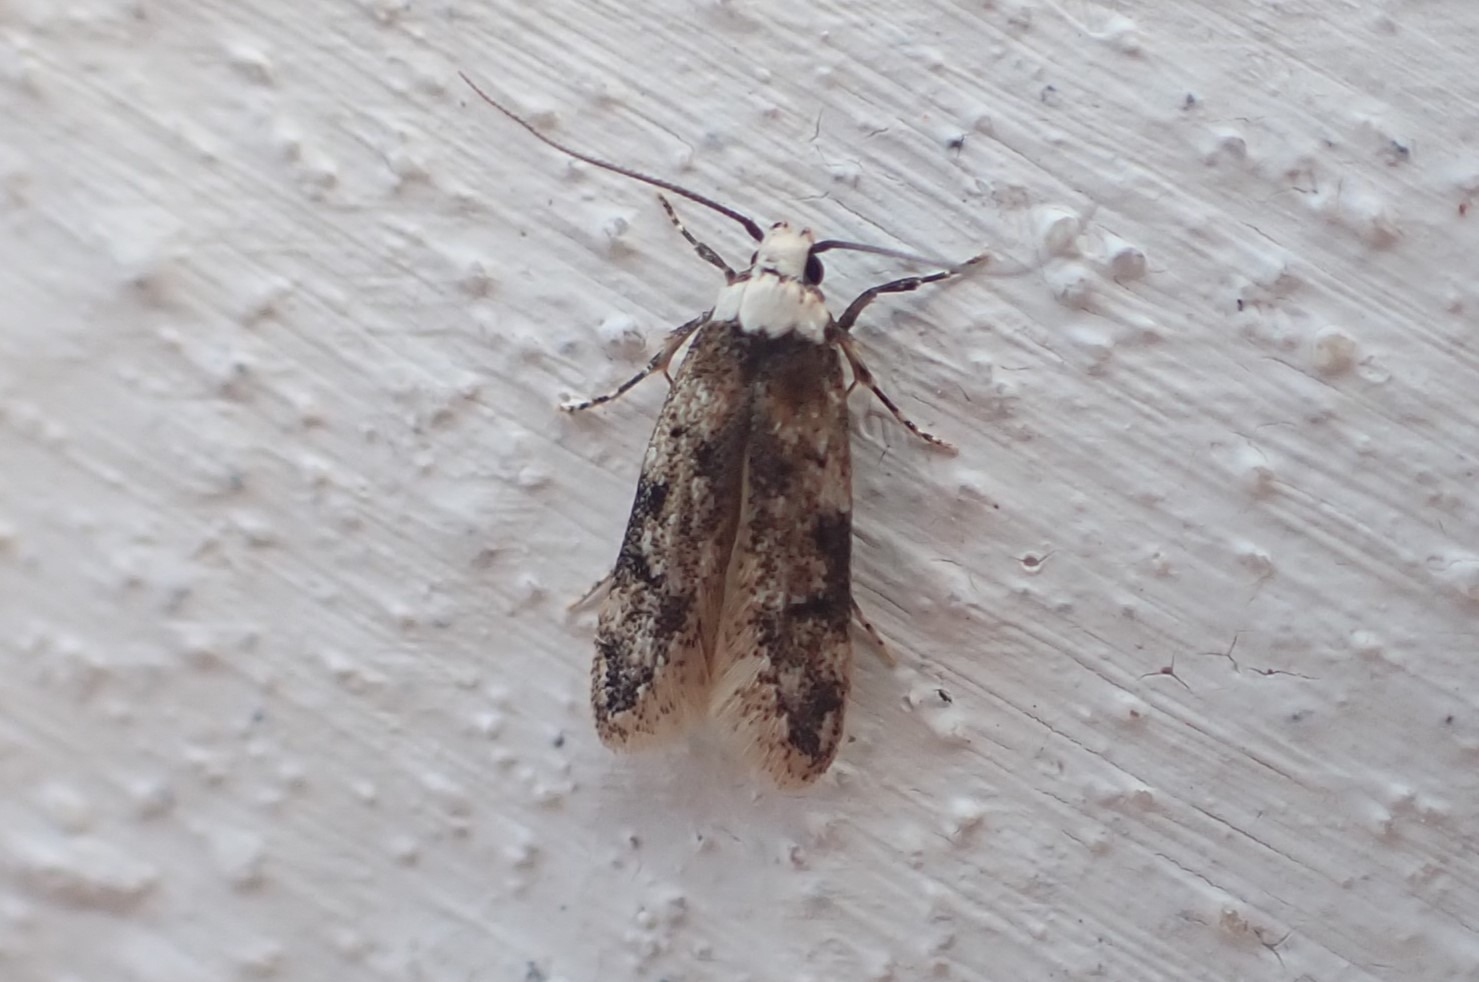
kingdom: Animalia
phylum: Arthropoda
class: Insecta
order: Lepidoptera
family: Oecophoridae
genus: Endrosis
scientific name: Endrosis sarcitrella
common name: Klistermøl
